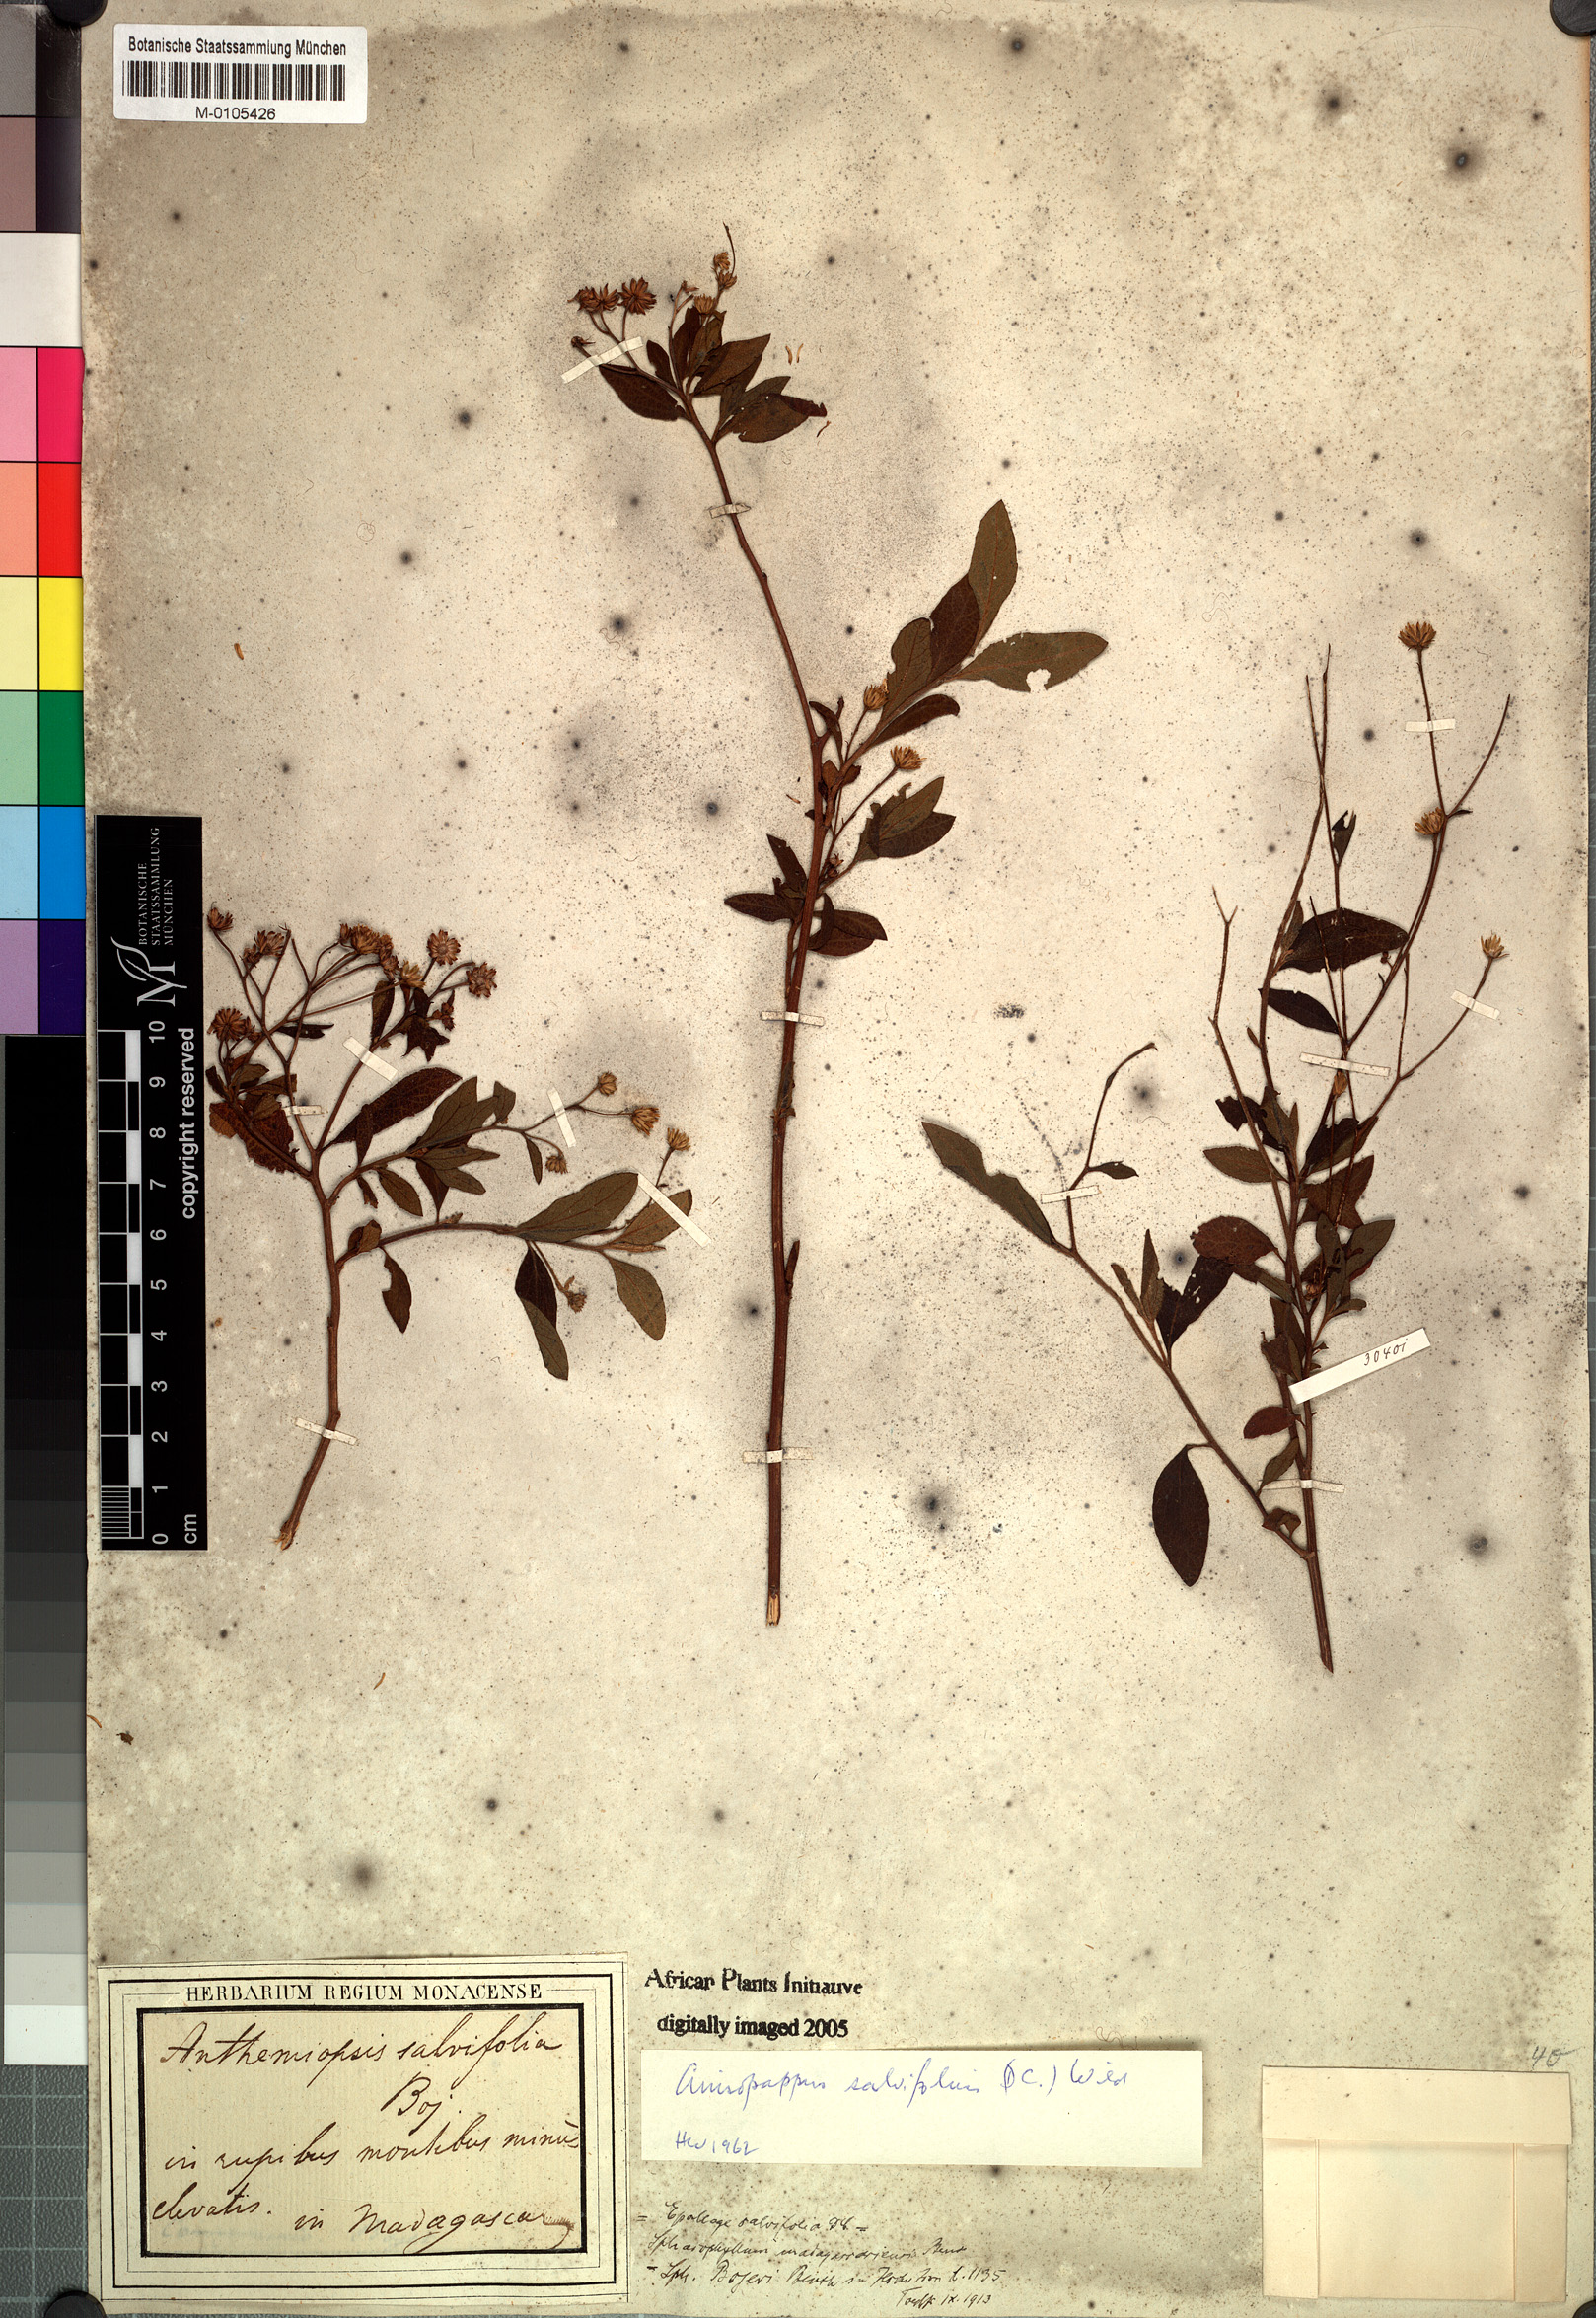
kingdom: Plantae
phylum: Tracheophyta
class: Magnoliopsida
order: Asterales
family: Asteraceae
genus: Anisopappus
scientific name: Anisopappus salviifolius
